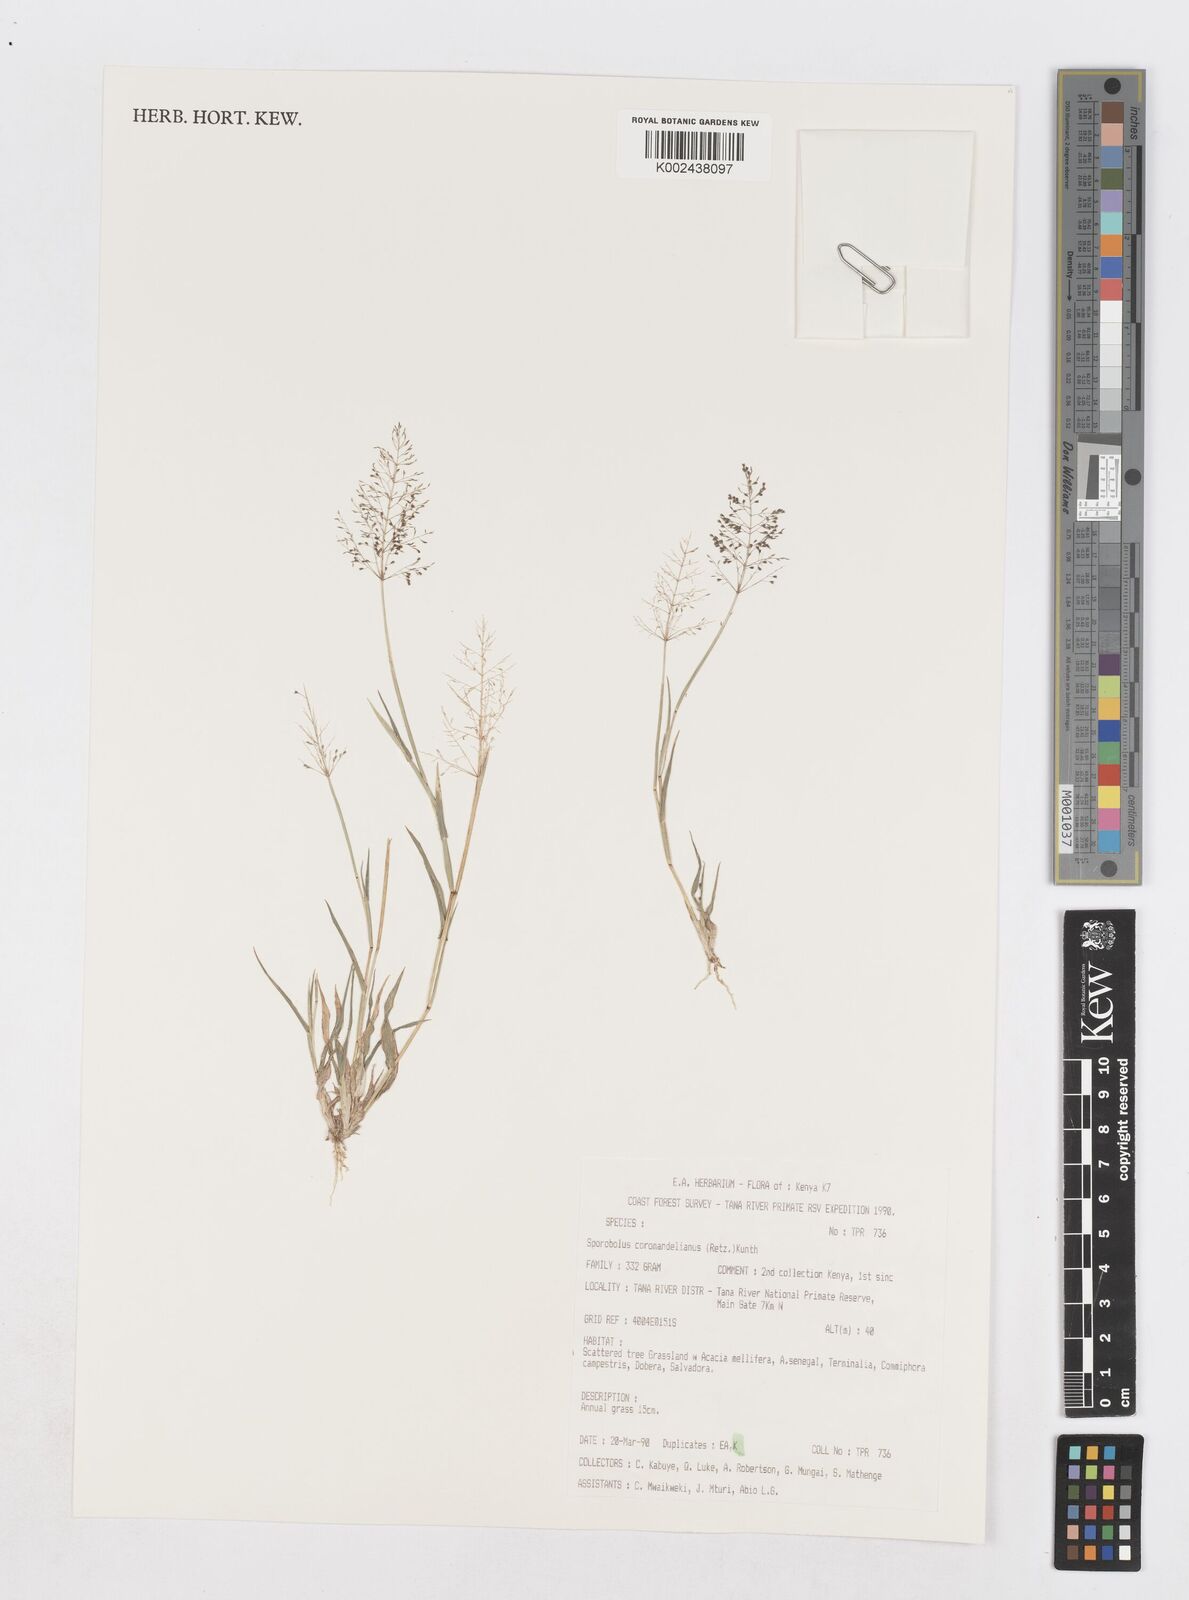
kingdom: Plantae
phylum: Tracheophyta
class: Liliopsida
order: Poales
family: Poaceae
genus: Sporobolus
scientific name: Sporobolus coromandelianus
